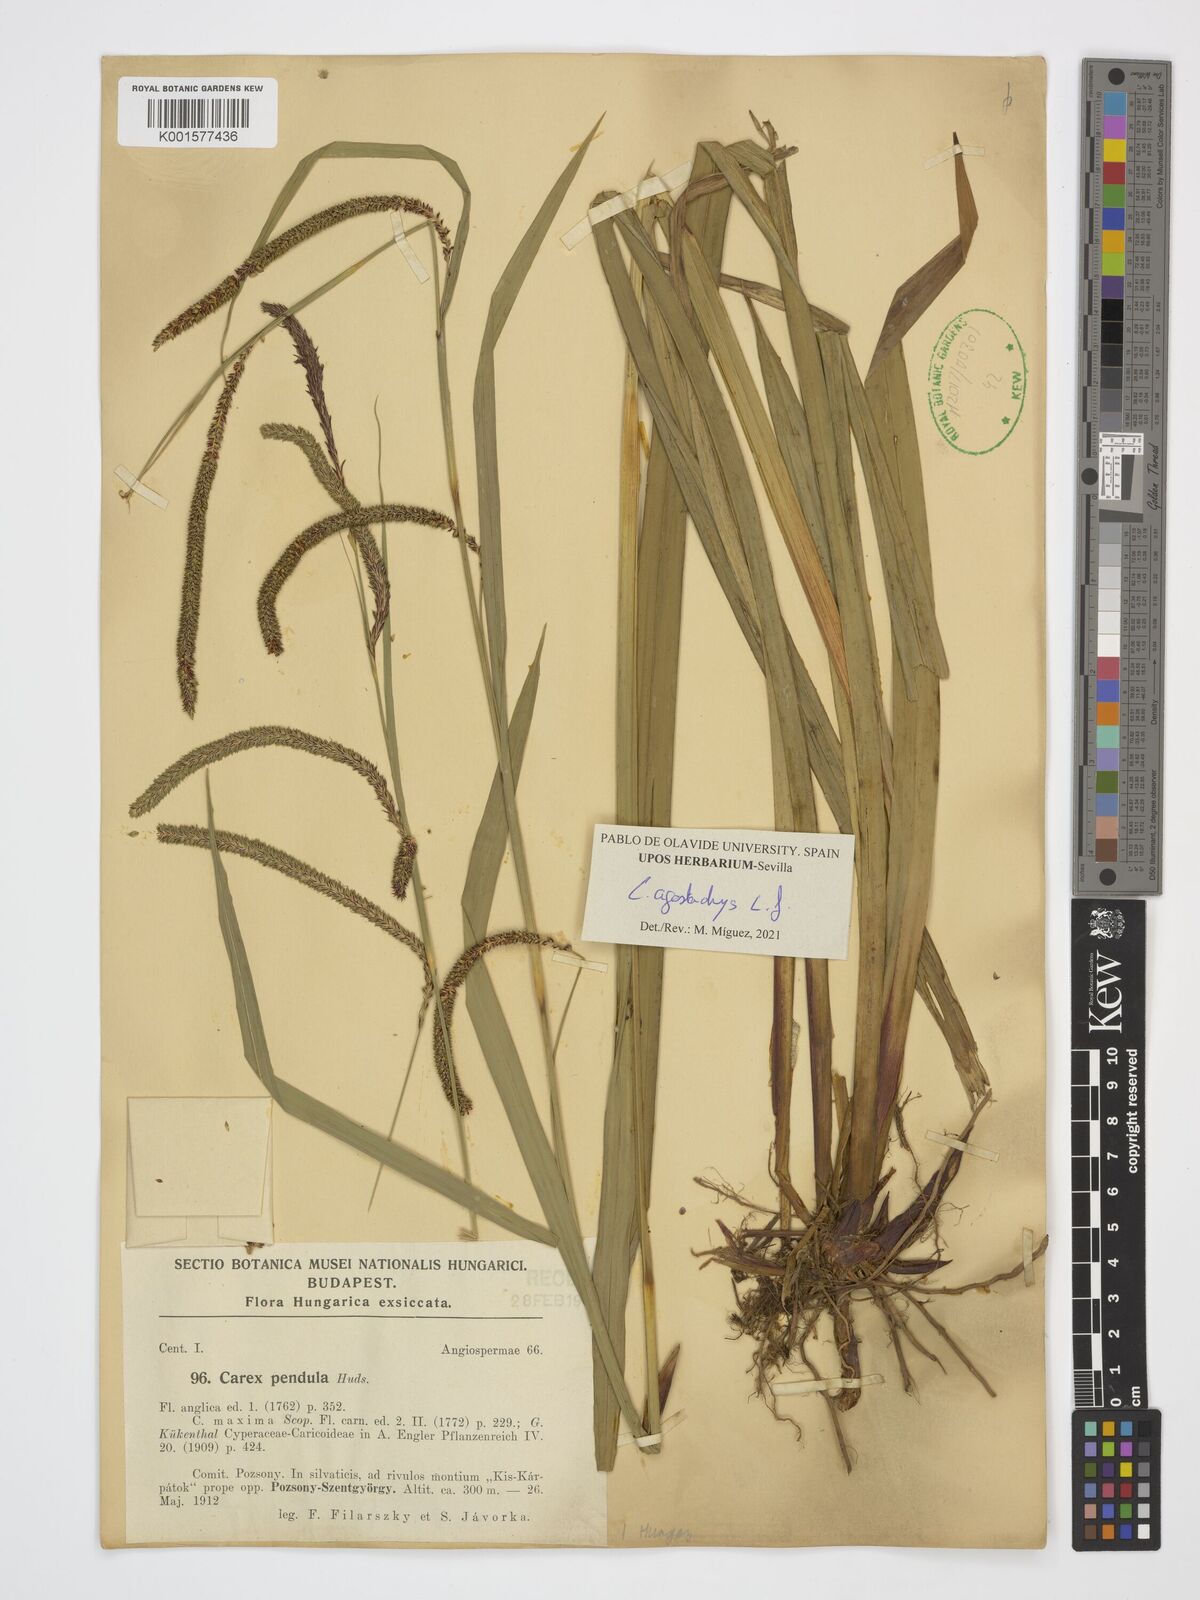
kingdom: Plantae
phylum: Tracheophyta
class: Liliopsida
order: Poales
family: Cyperaceae
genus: Carex
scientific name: Carex agastachys
